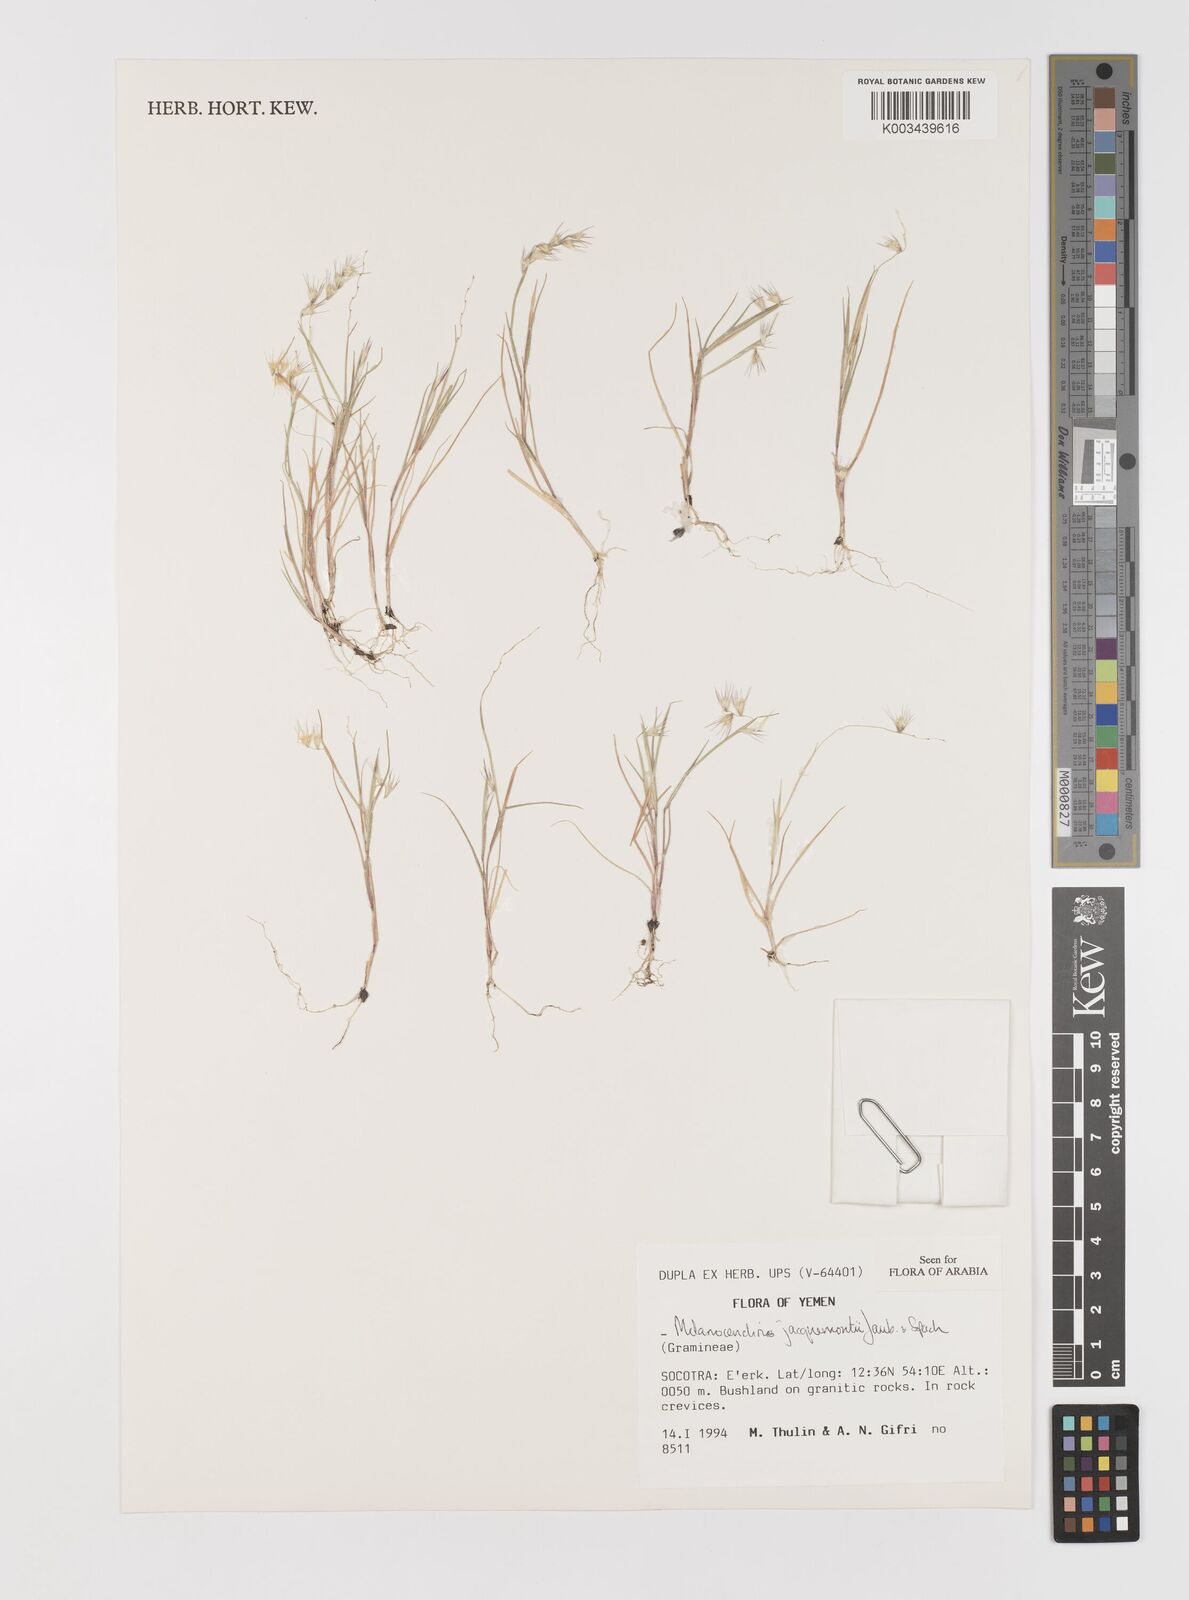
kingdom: Plantae
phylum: Tracheophyta
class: Liliopsida
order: Poales
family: Poaceae
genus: Melanocenchris
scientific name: Melanocenchris jacquemontii
